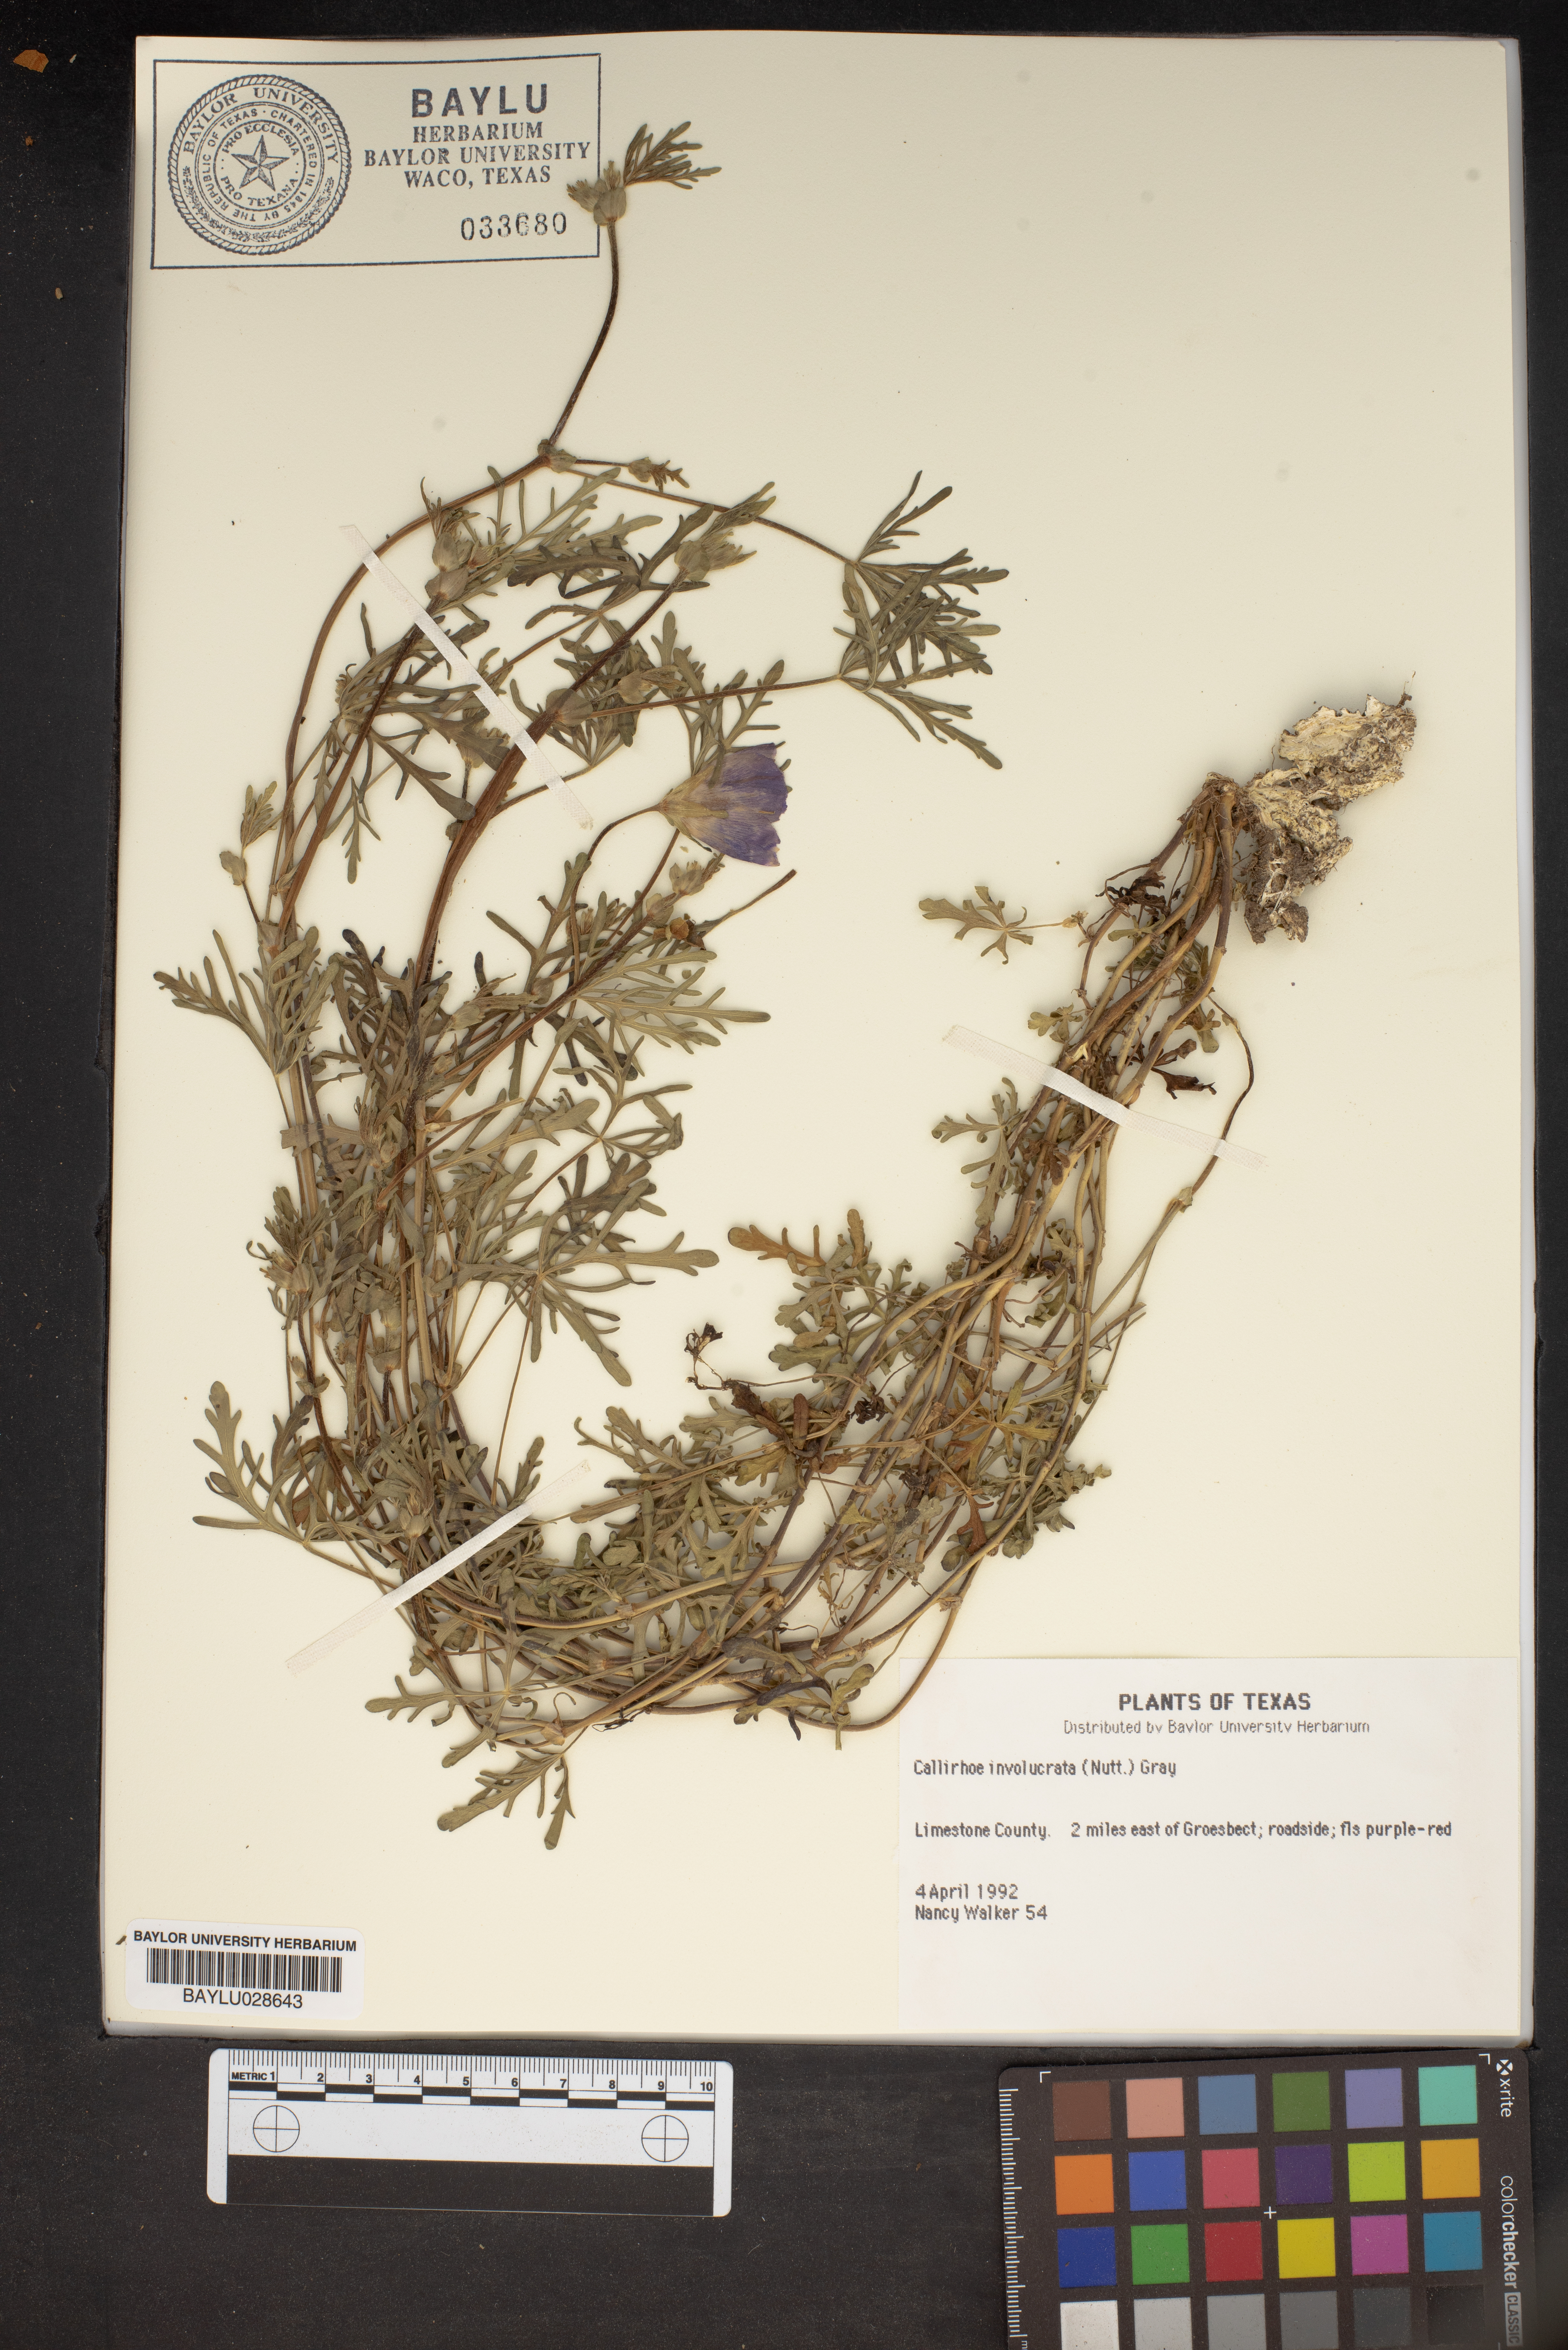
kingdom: Plantae
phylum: Tracheophyta
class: Magnoliopsida
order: Malvales
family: Malvaceae
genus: Callirhoe
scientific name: Callirhoe involucrata
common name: Purple poppy-mallow
